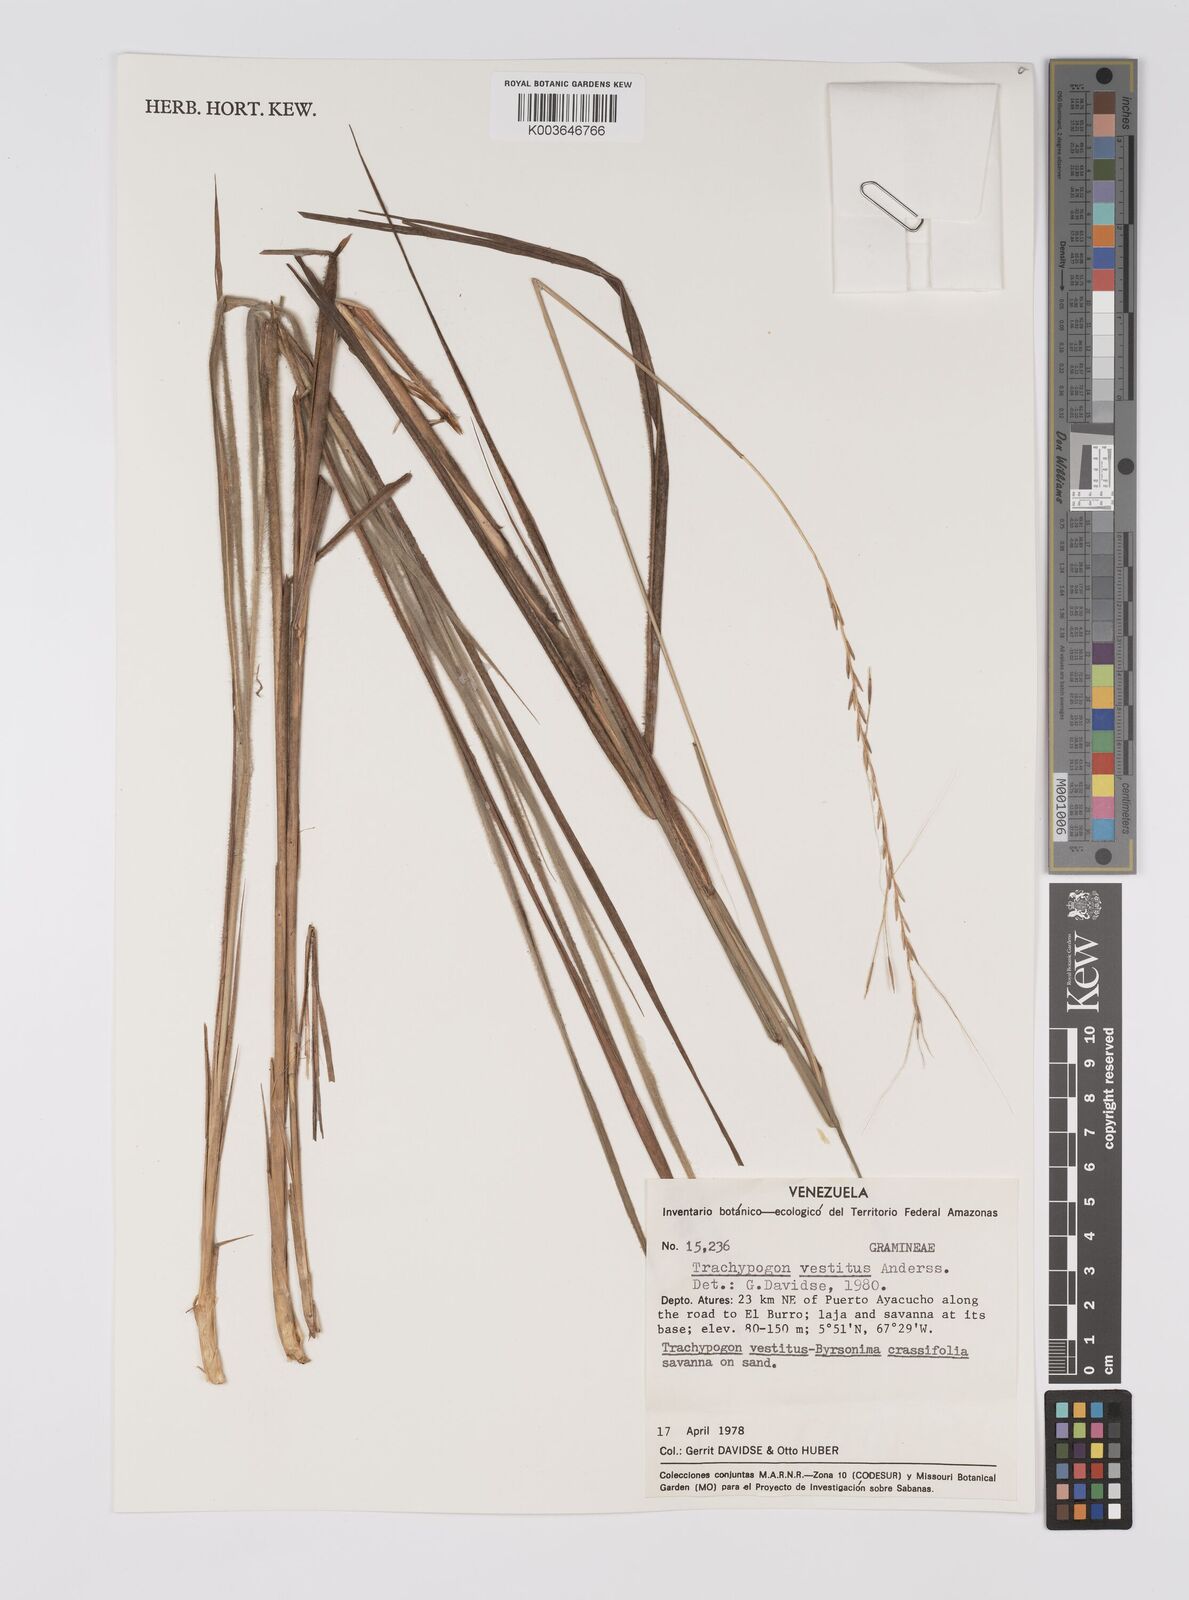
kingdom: Plantae
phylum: Tracheophyta
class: Liliopsida
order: Poales
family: Poaceae
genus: Trachypogon
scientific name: Trachypogon spicatus
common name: Crinkle-awn
